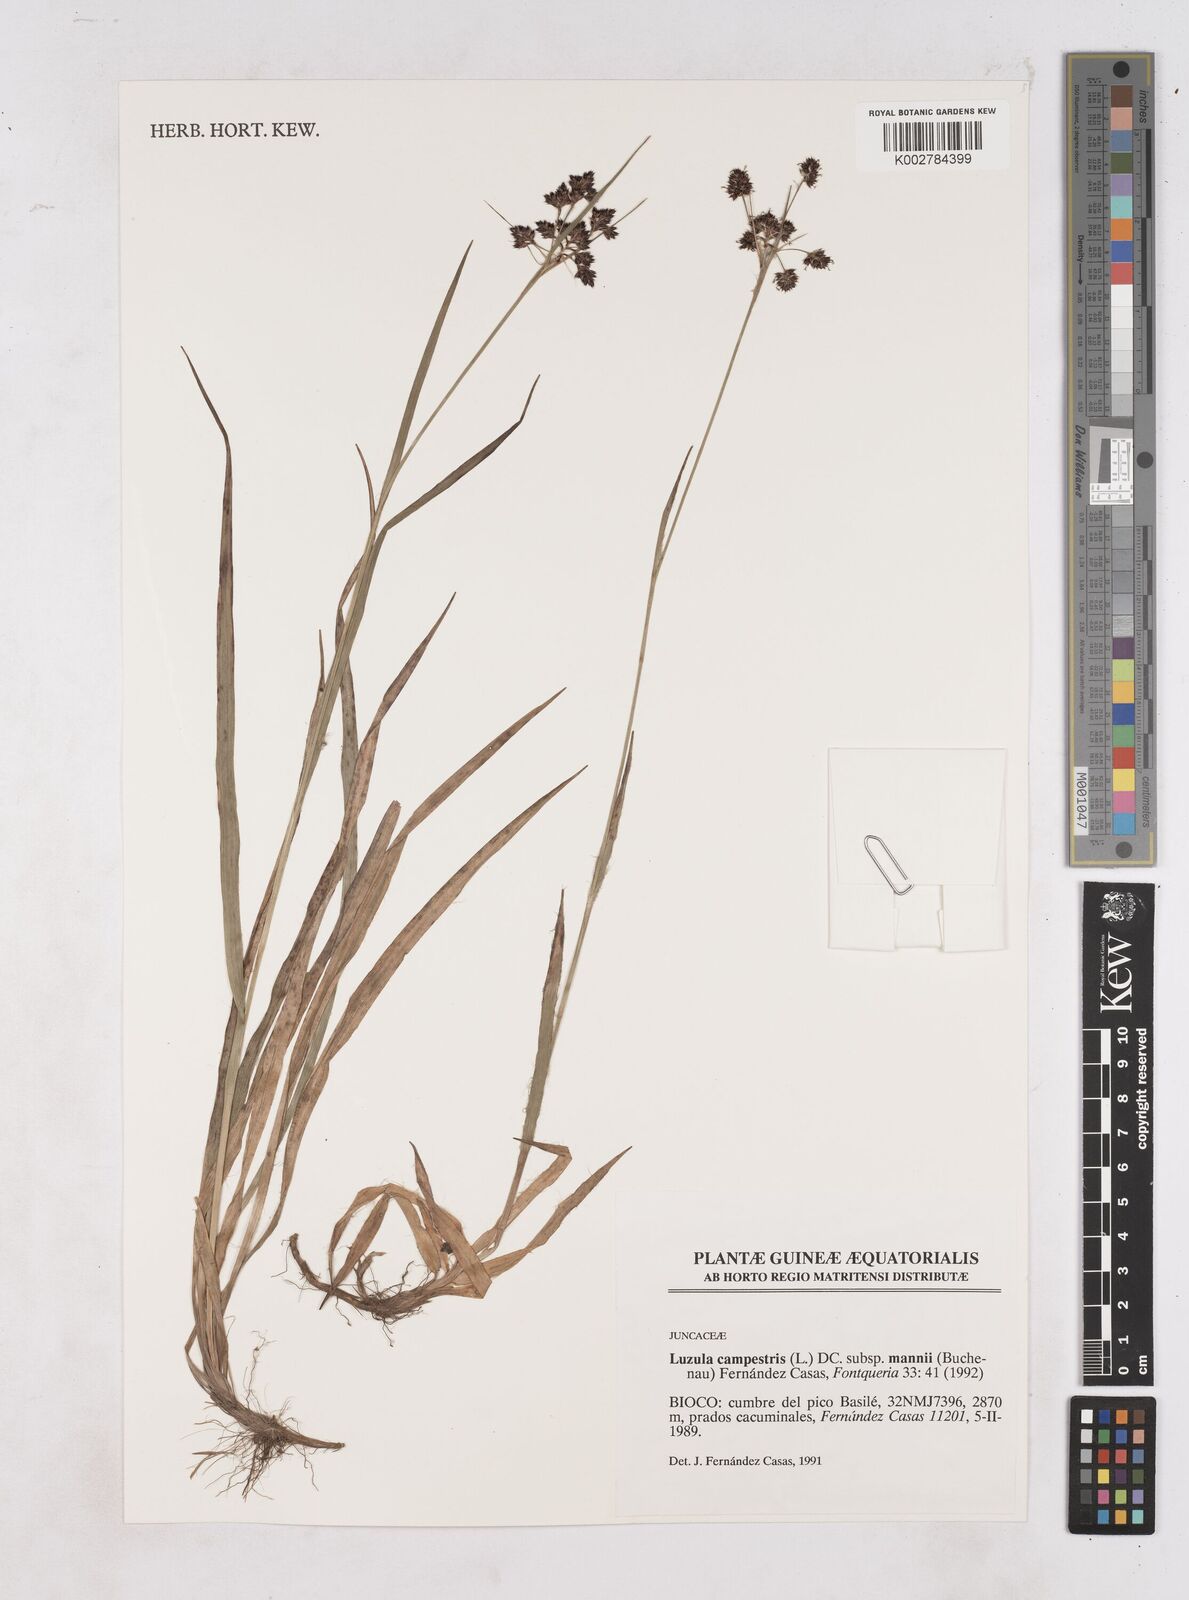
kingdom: Plantae
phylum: Tracheophyta
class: Liliopsida
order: Poales
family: Juncaceae
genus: Luzula
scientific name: Luzula campestris
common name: Field wood-rush
